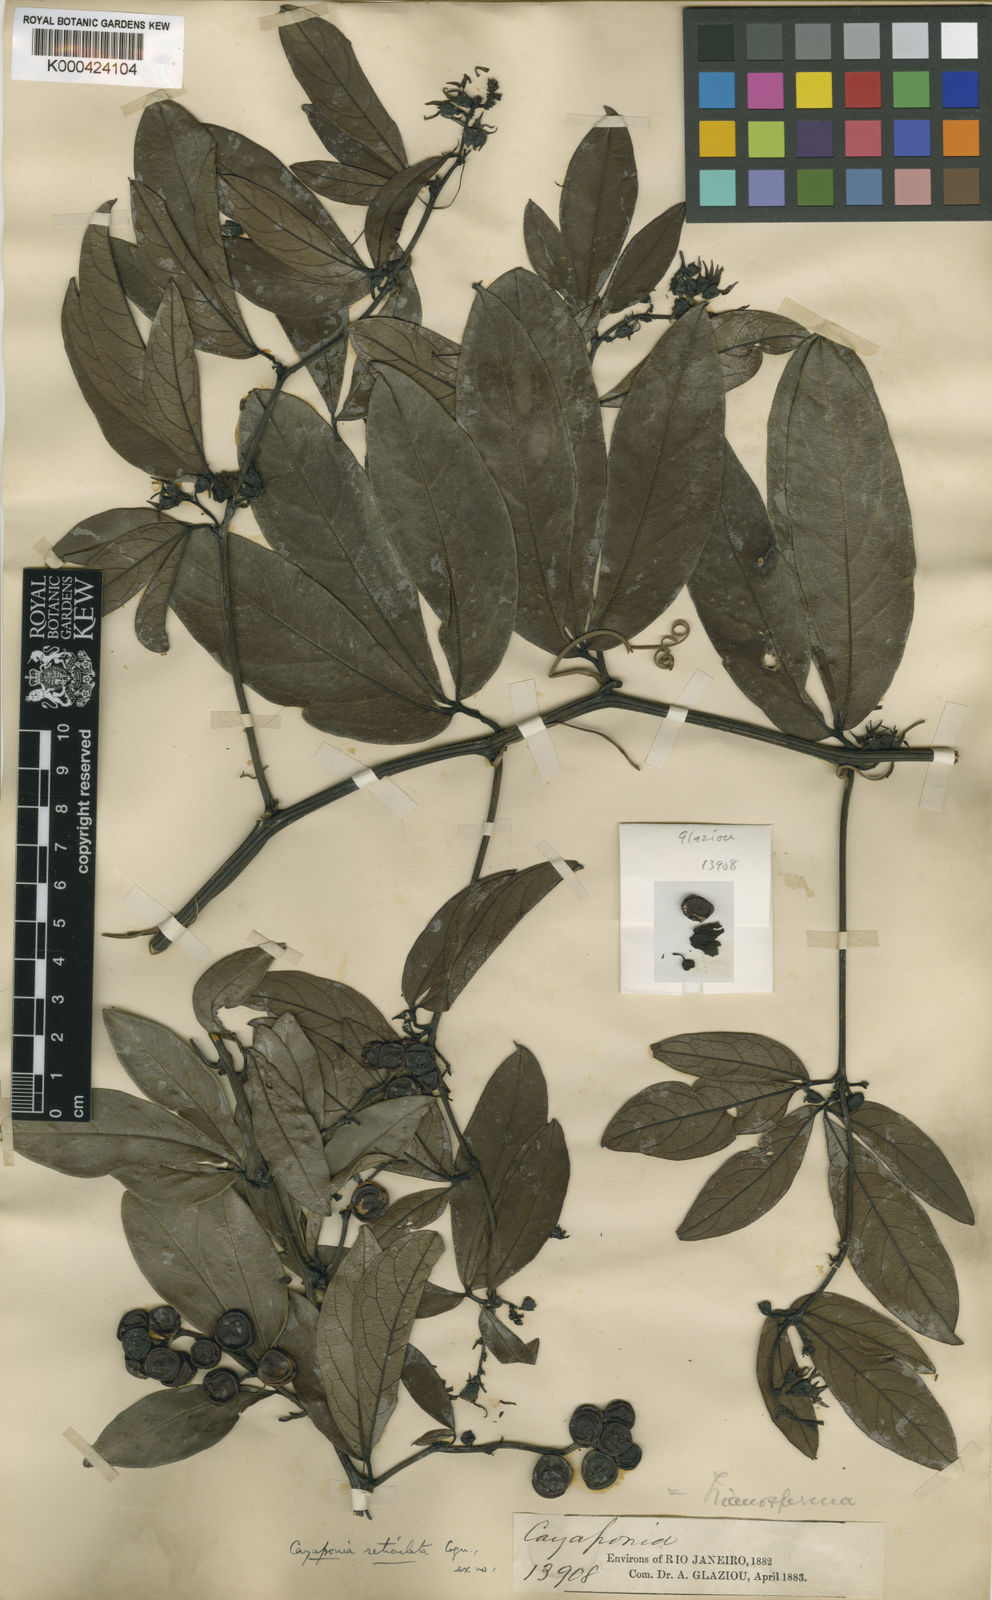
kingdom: Plantae
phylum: Tracheophyta
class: Magnoliopsida
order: Cucurbitales
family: Cucurbitaceae
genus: Cayaponia
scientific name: Cayaponia longifolia
